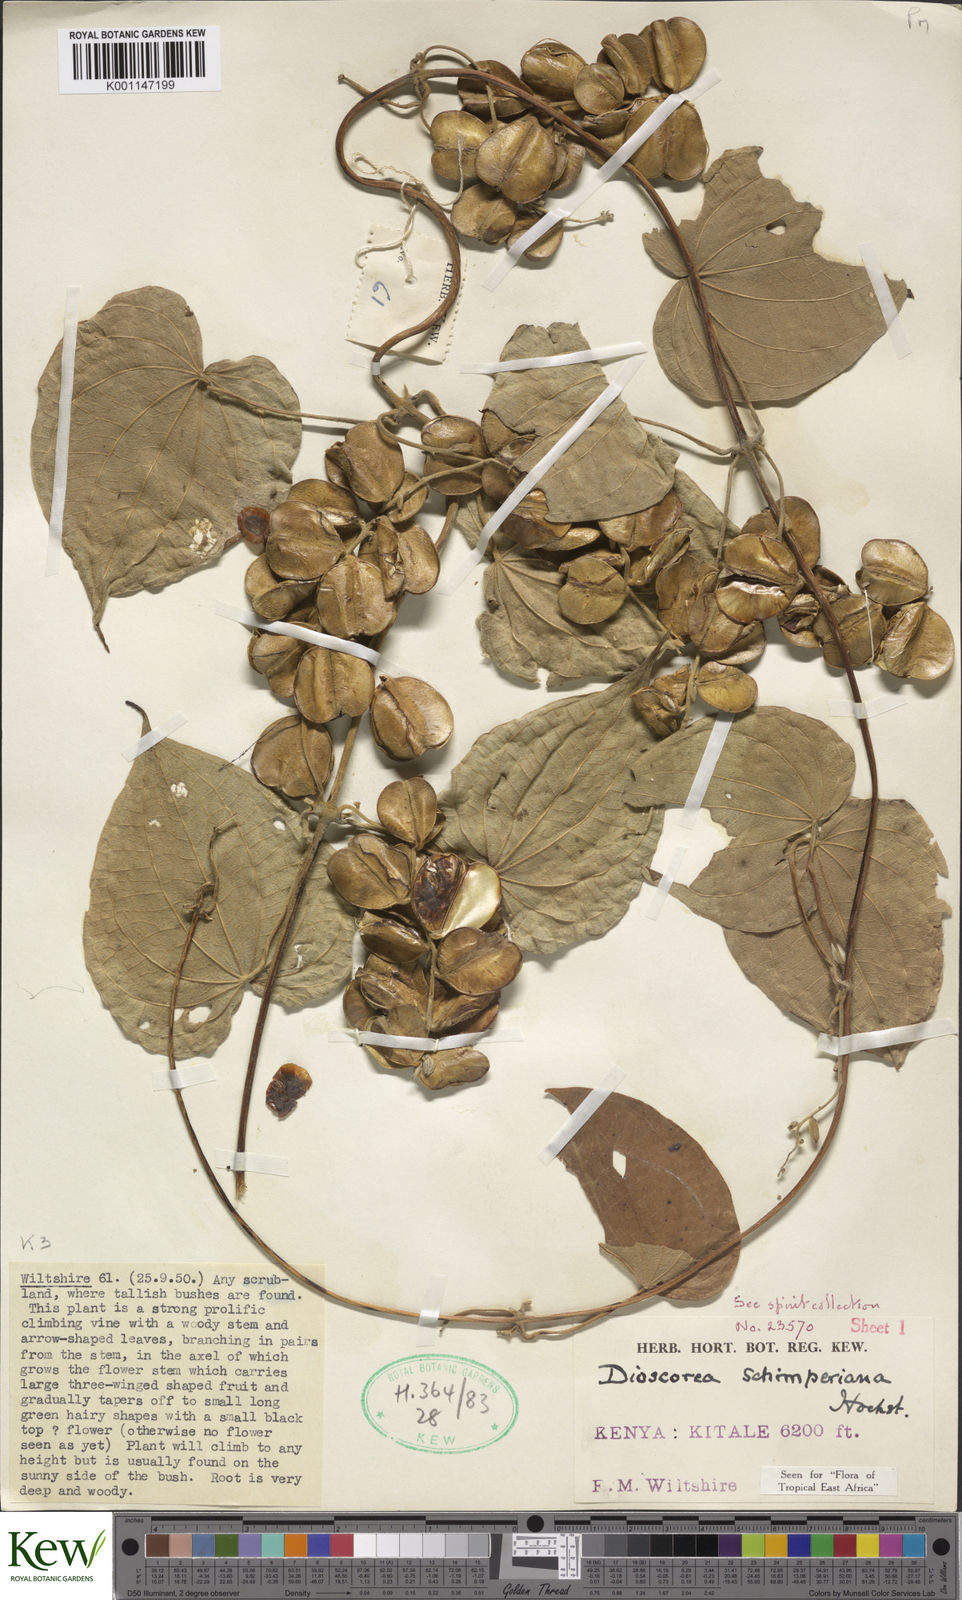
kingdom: Plantae
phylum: Tracheophyta
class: Liliopsida
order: Dioscoreales
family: Dioscoreaceae
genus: Dioscorea
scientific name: Dioscorea schimperiana
